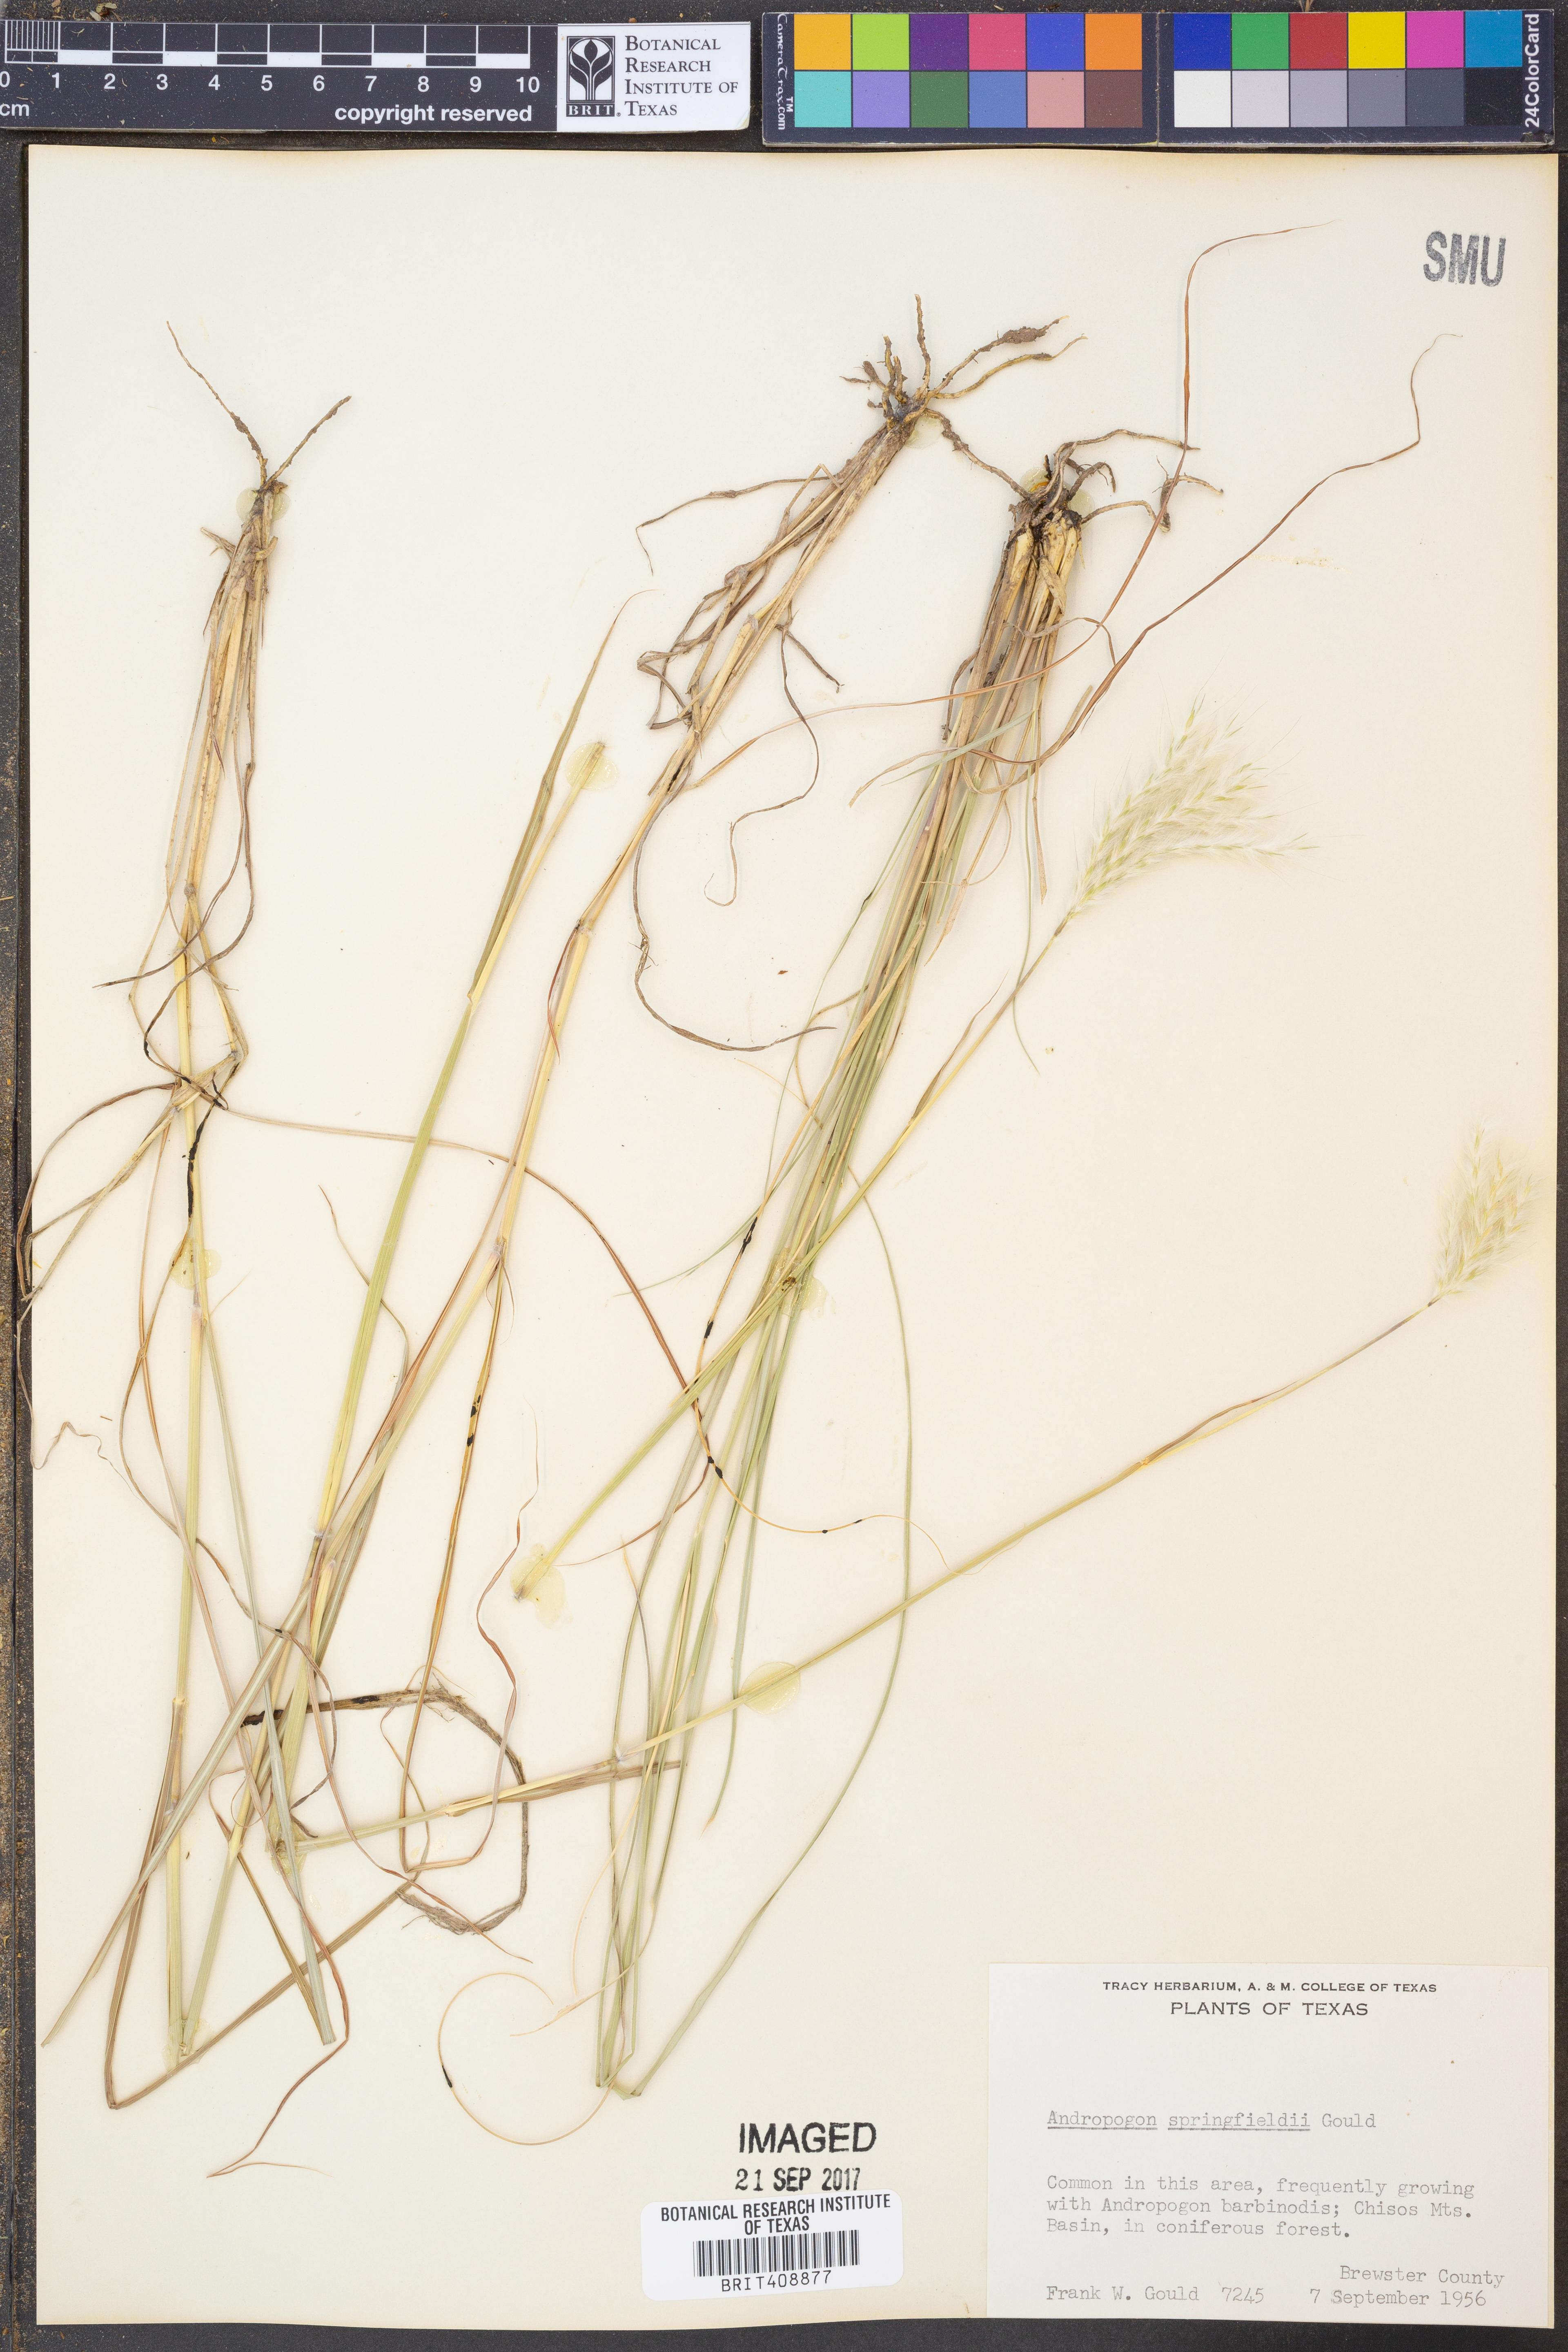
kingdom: Plantae
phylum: Tracheophyta
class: Liliopsida
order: Poales
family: Poaceae
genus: Bothriochloa
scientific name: Bothriochloa springfieldii
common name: Springfield bluestem
